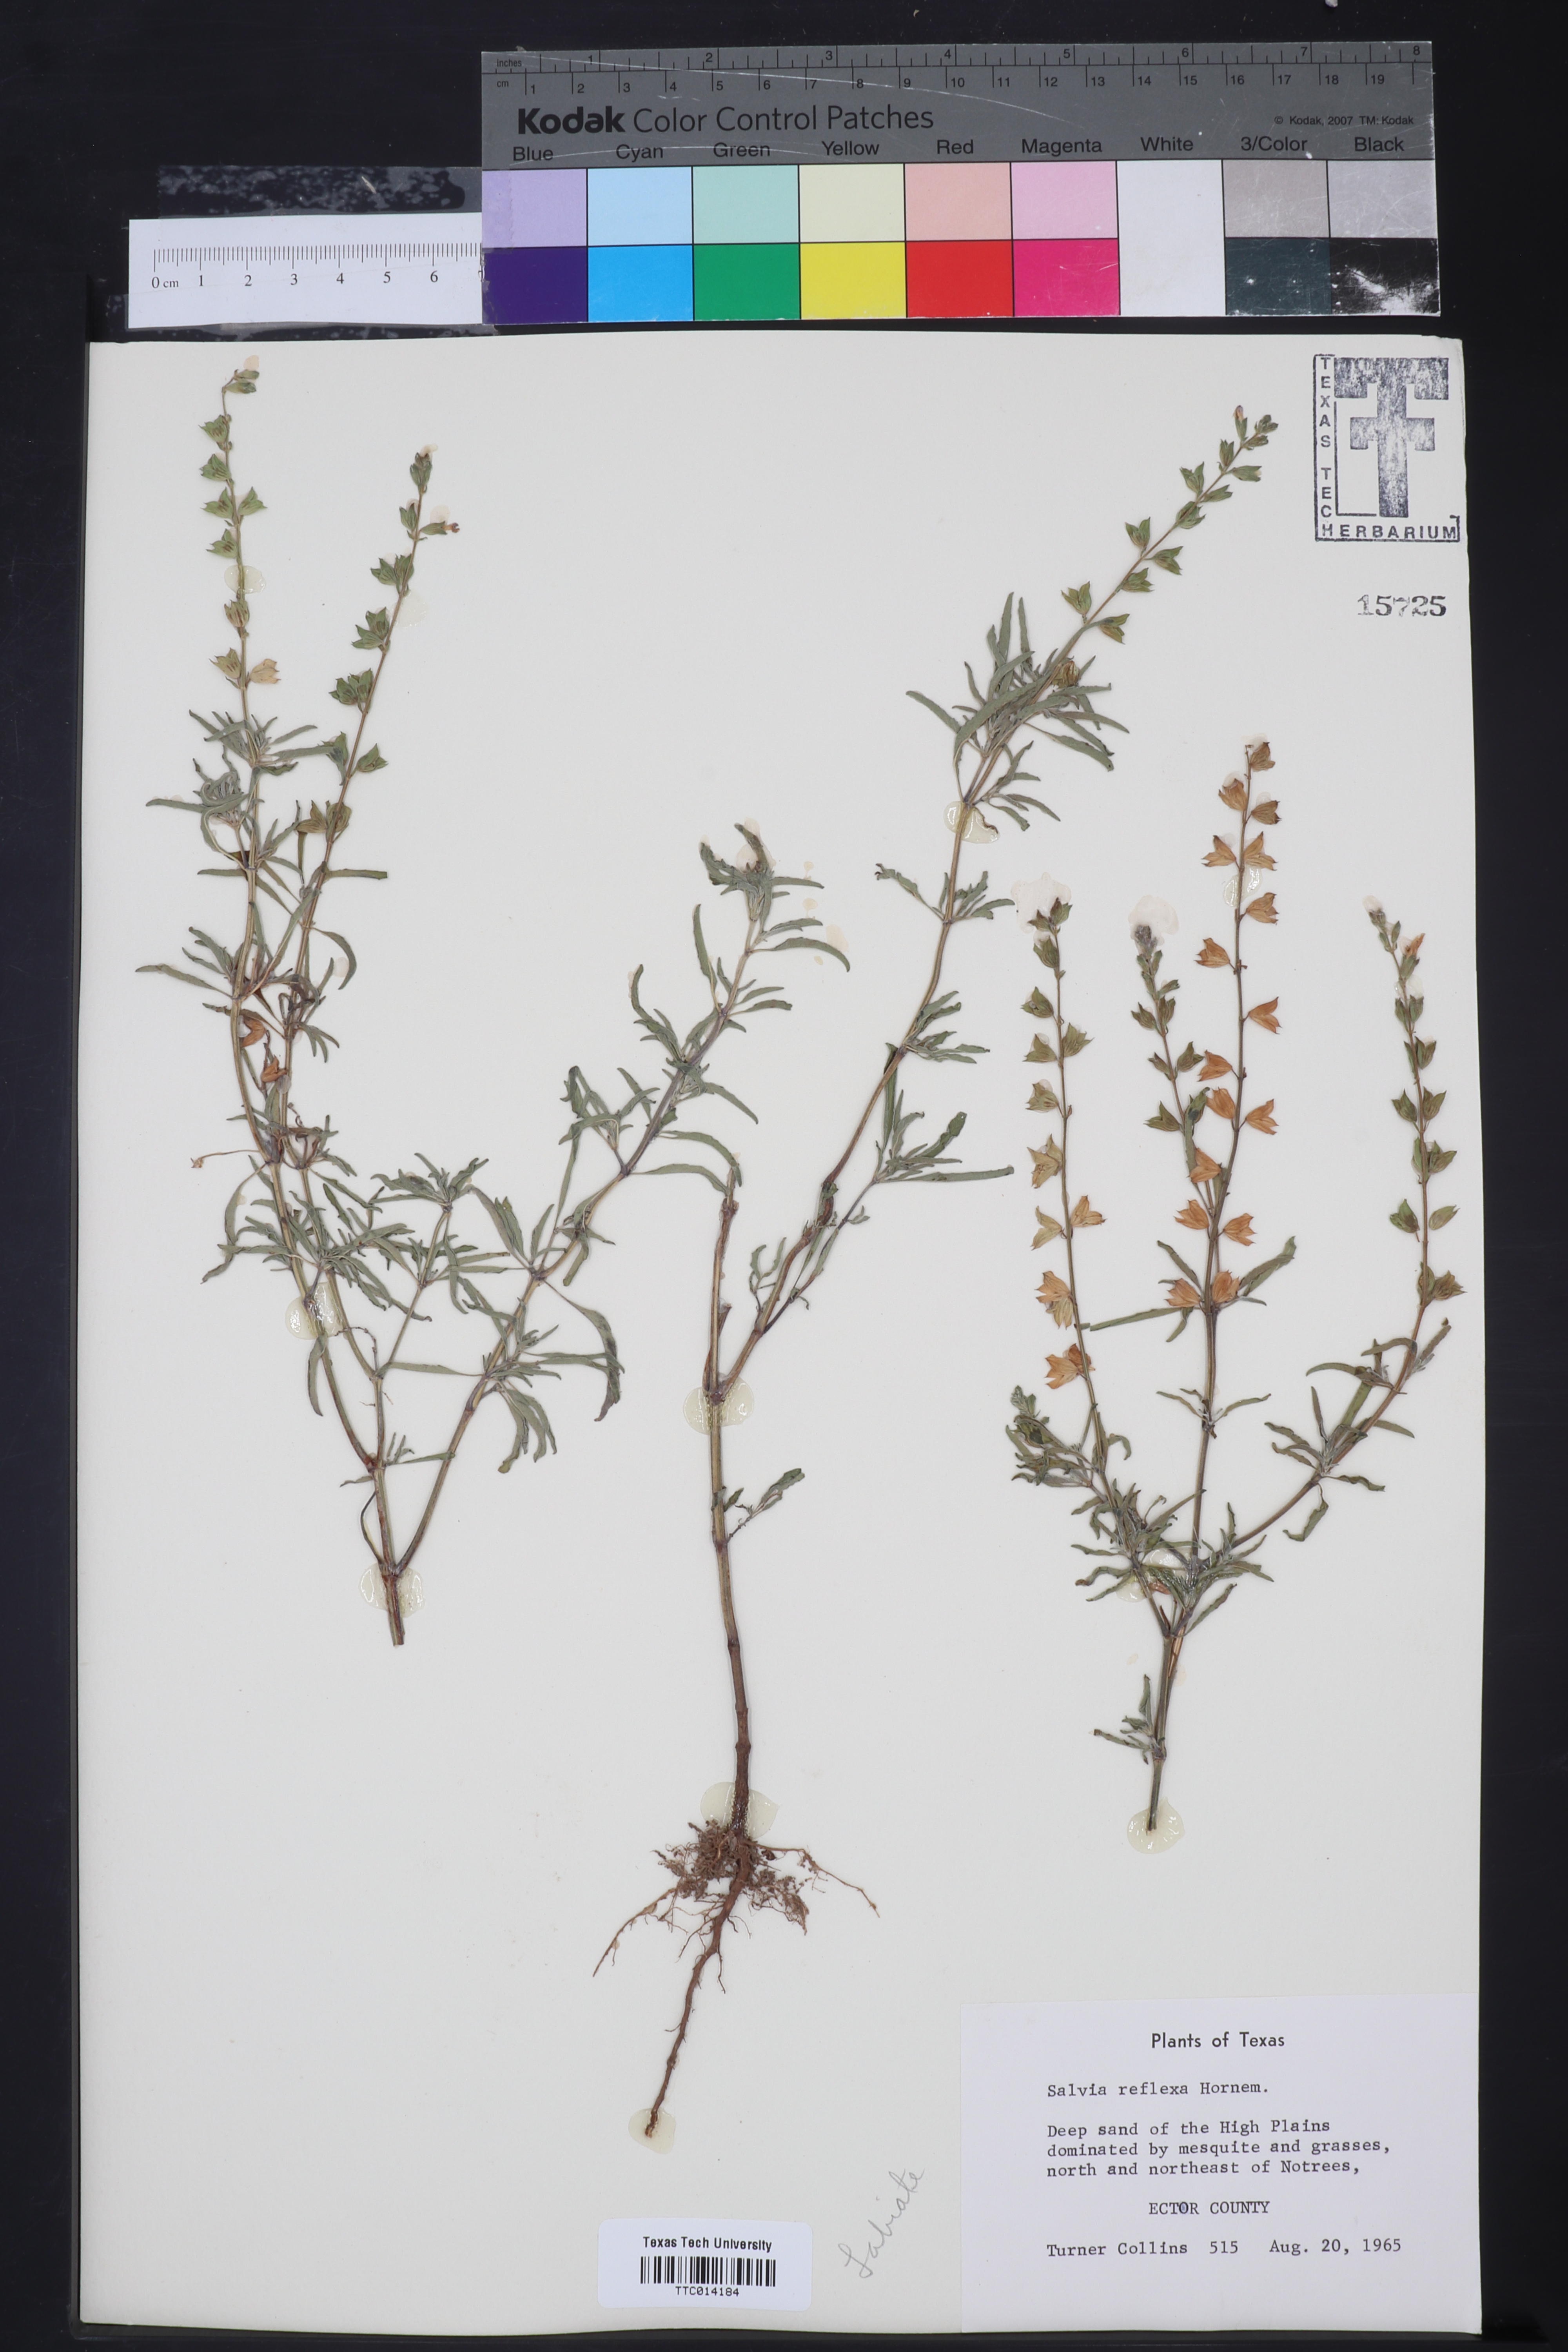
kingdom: Plantae
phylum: Tracheophyta
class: Magnoliopsida
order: Lamiales
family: Lamiaceae
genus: Salvia
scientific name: Salvia reflexa
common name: Mintweed
